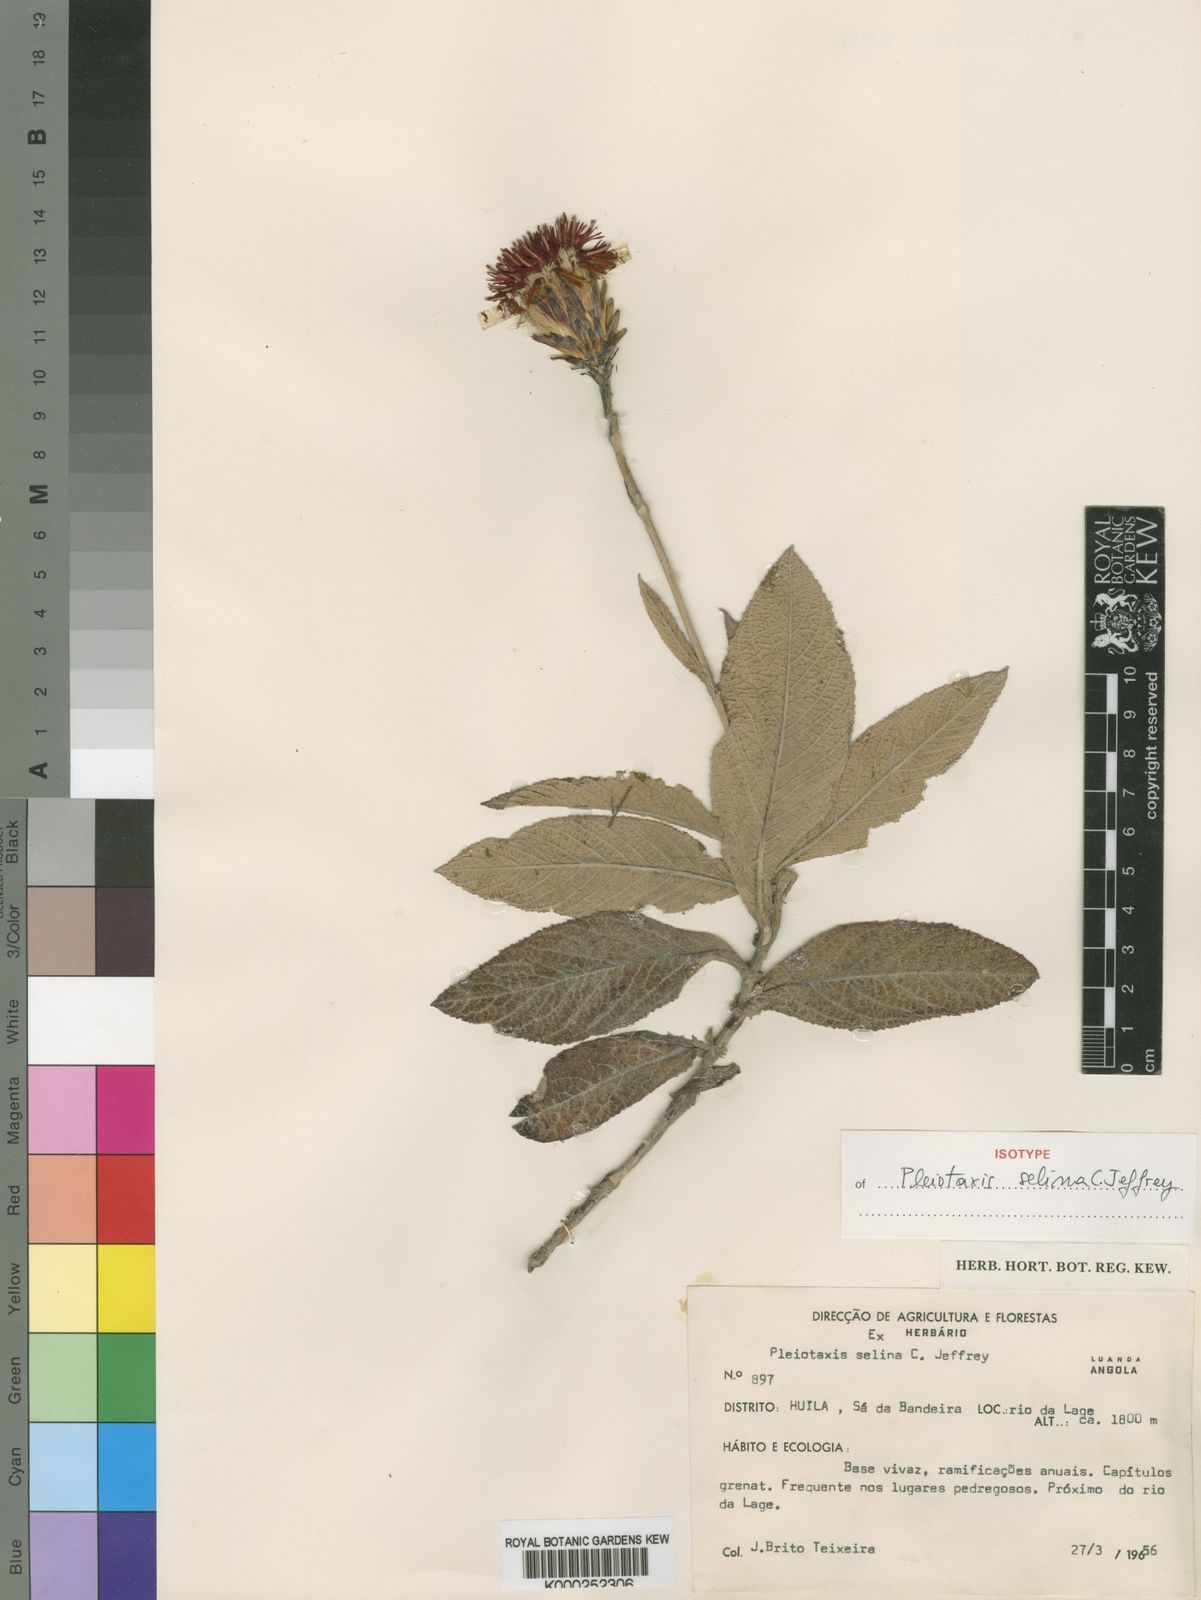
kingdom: Plantae
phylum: Tracheophyta
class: Magnoliopsida
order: Asterales
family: Asteraceae
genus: Pleiotaxis
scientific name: Pleiotaxis selina
